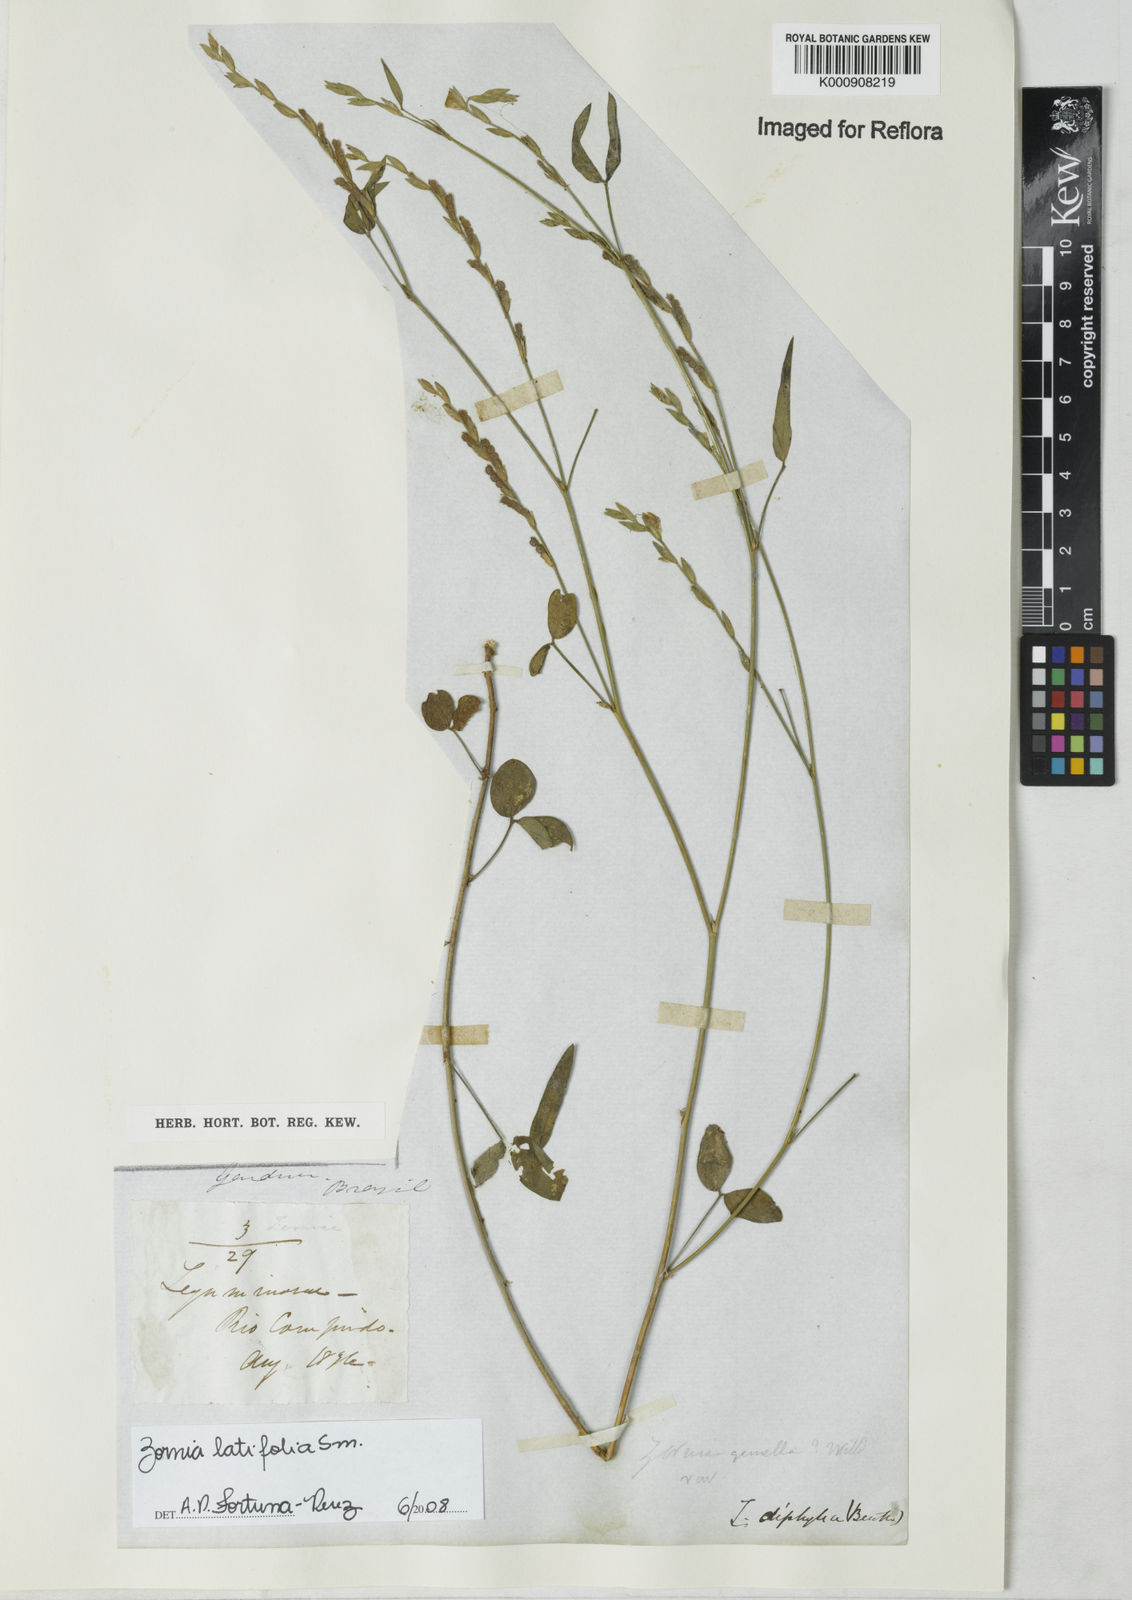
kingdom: Plantae
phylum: Tracheophyta
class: Magnoliopsida
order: Fabales
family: Fabaceae
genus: Zornia
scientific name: Zornia latifolia
